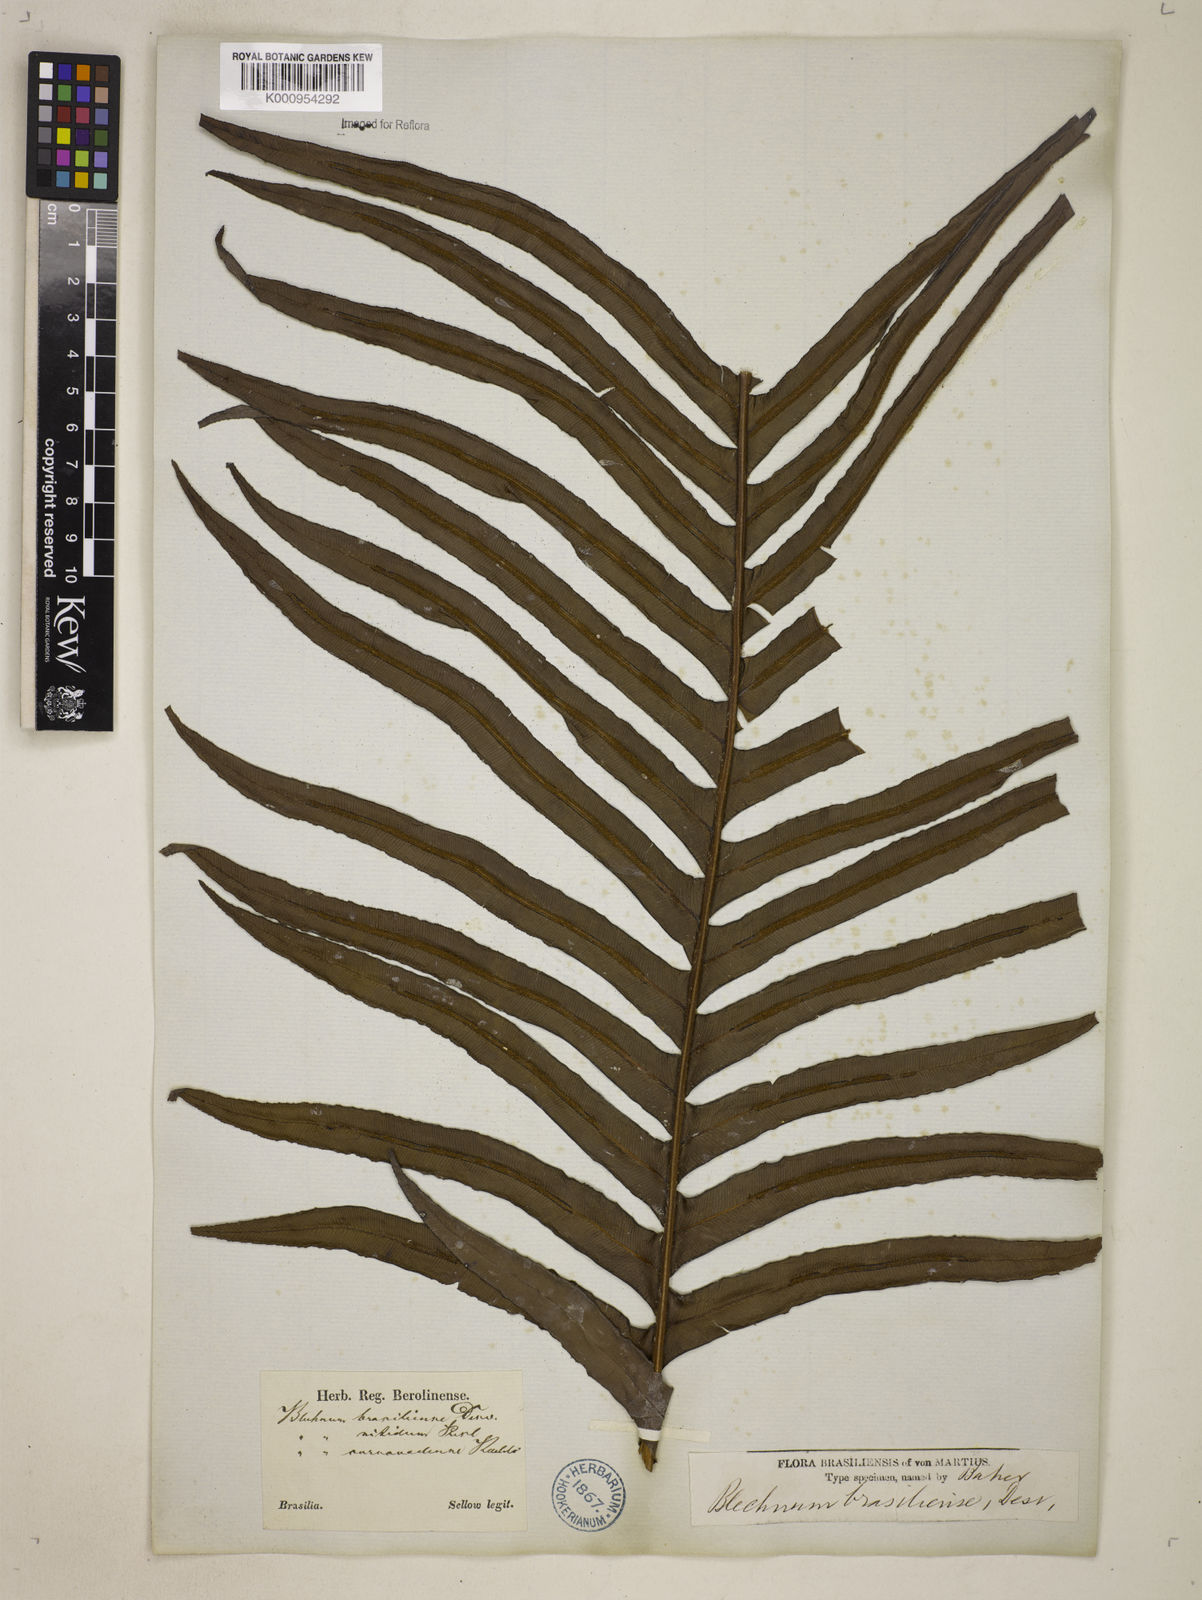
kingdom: Plantae
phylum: Tracheophyta
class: Polypodiopsida
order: Polypodiales
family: Blechnaceae
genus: Neoblechnum
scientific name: Neoblechnum brasiliense
